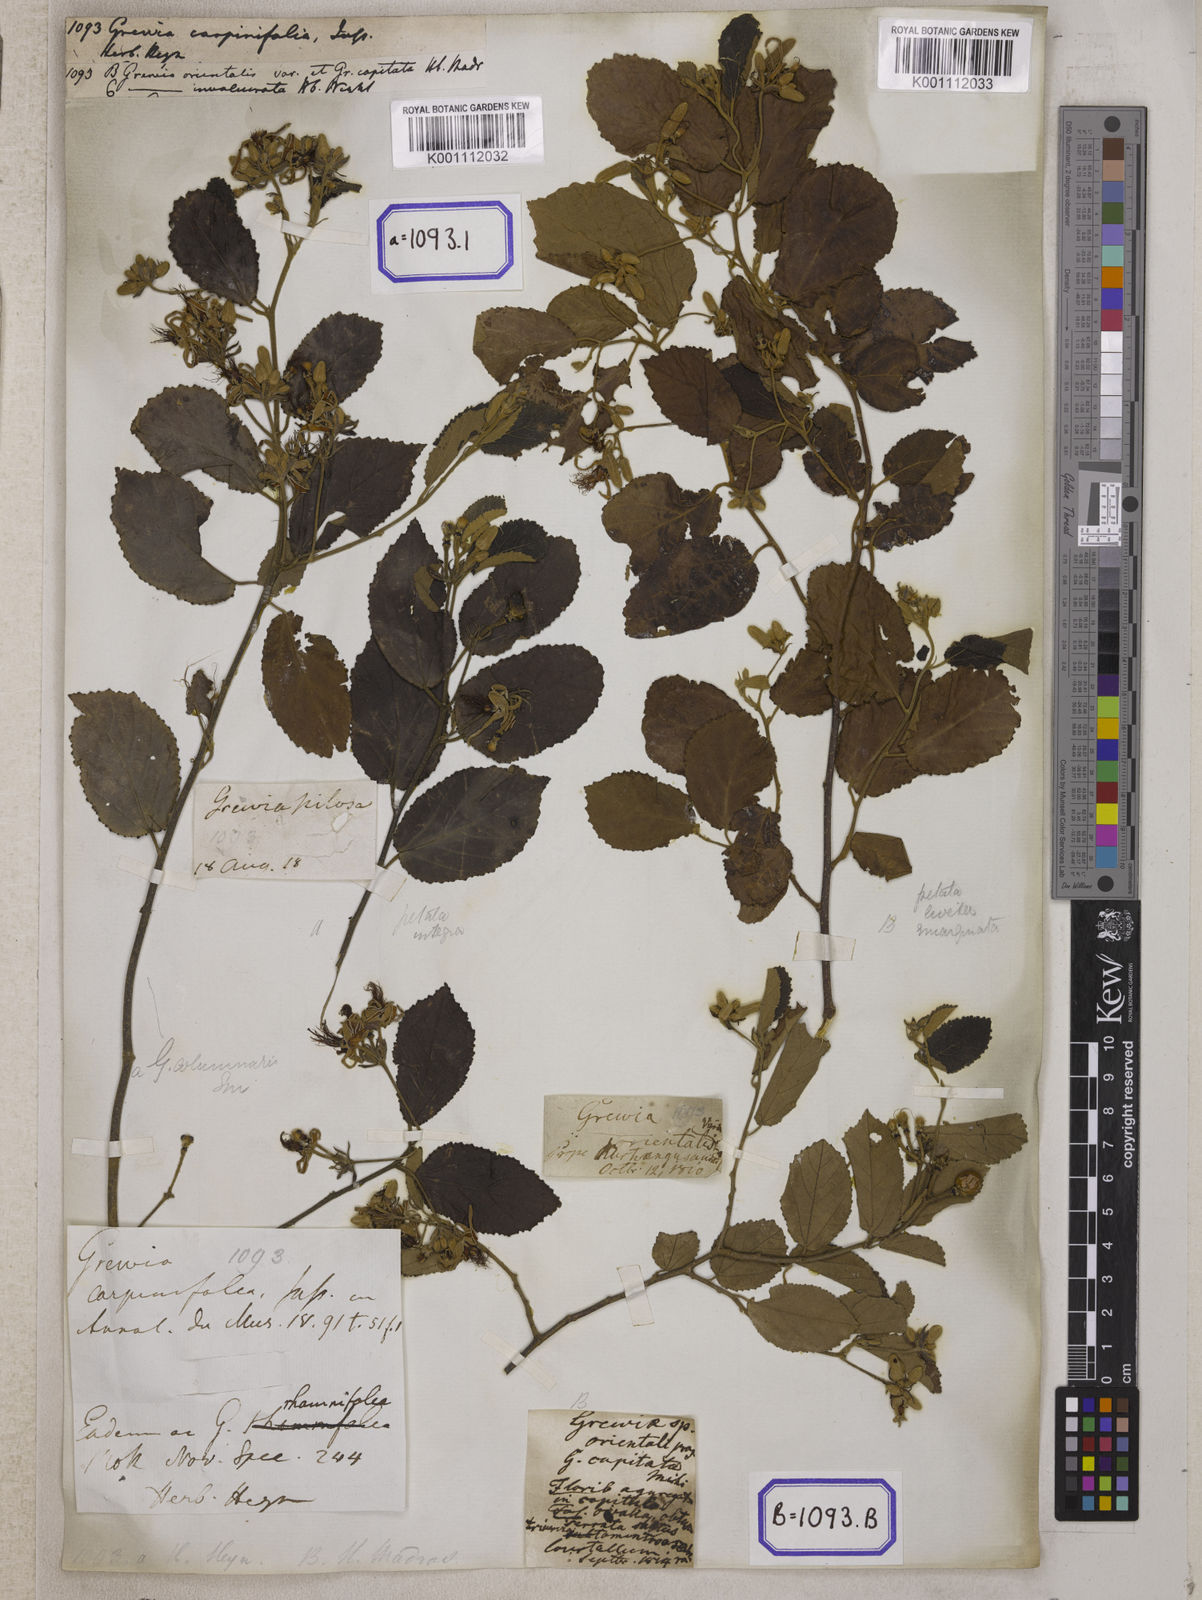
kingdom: Plantae
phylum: Tracheophyta
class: Magnoliopsida
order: Malvales
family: Malvaceae
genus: Grewia
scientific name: Grewia carpinifolia
